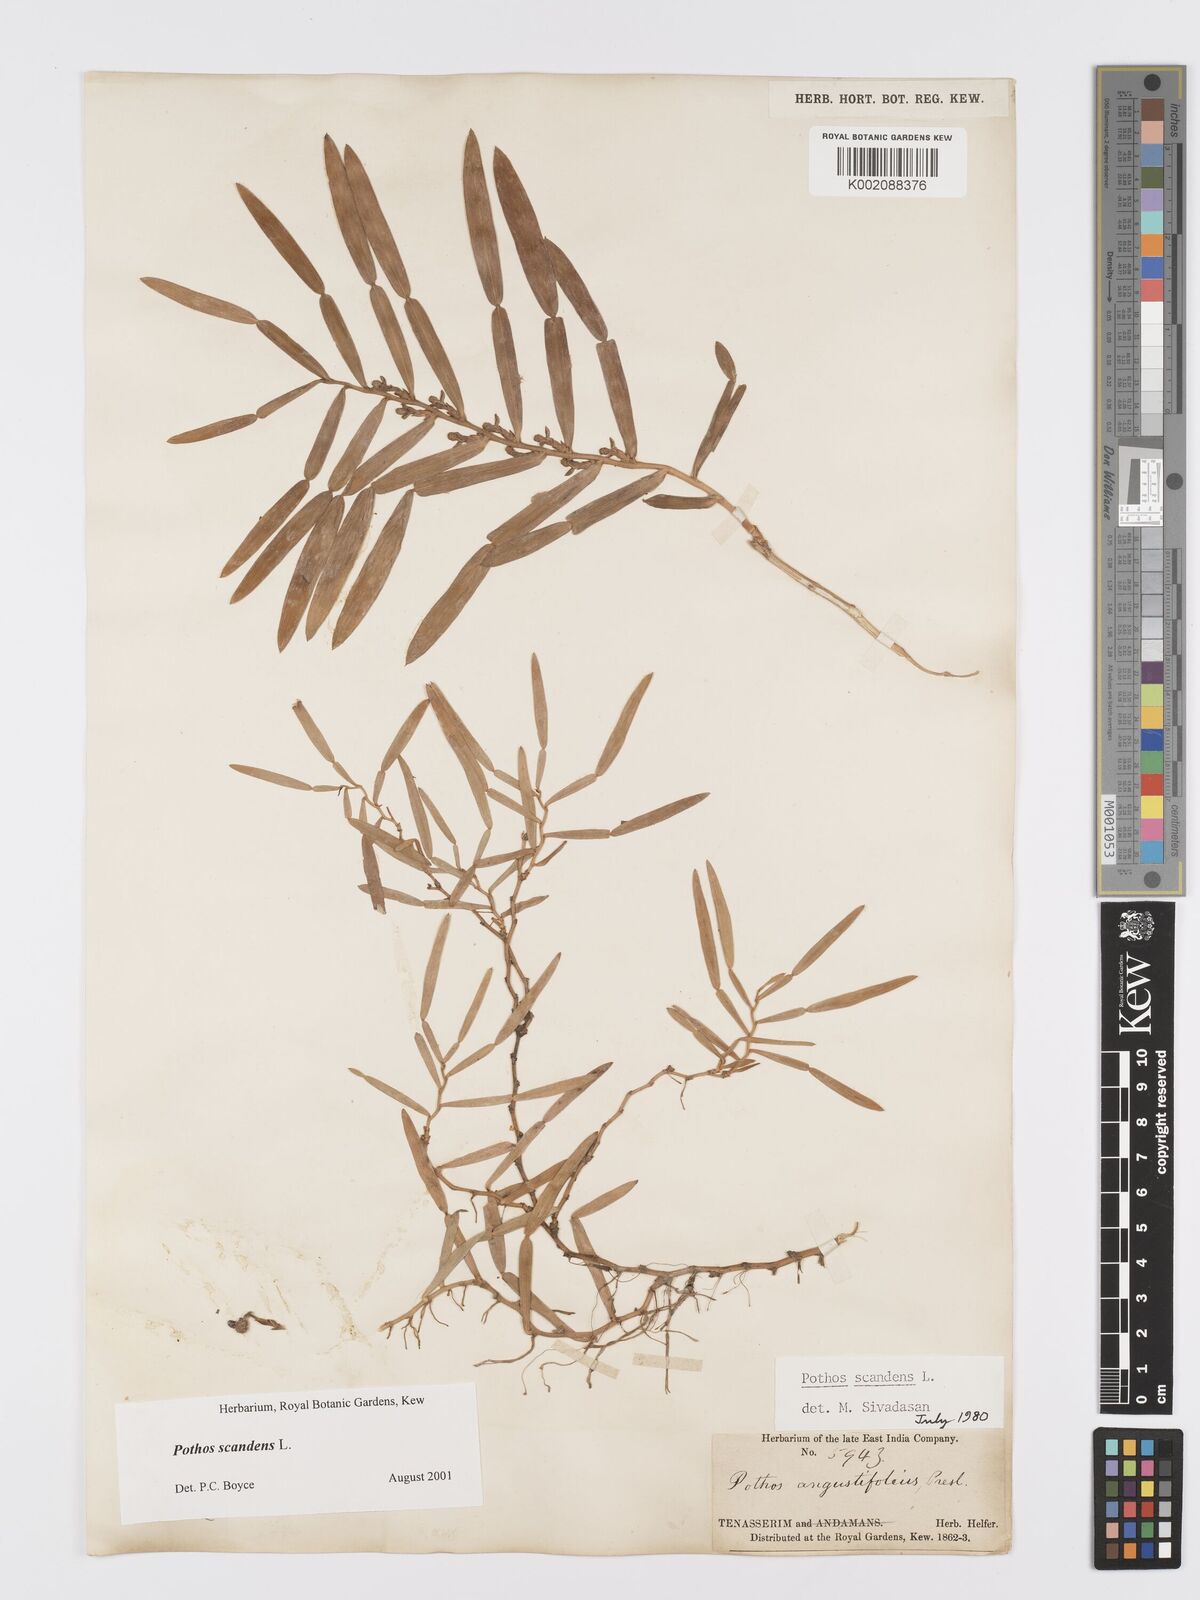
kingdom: Plantae
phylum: Tracheophyta
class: Liliopsida
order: Alismatales
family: Araceae
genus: Pothos
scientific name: Pothos scandens
